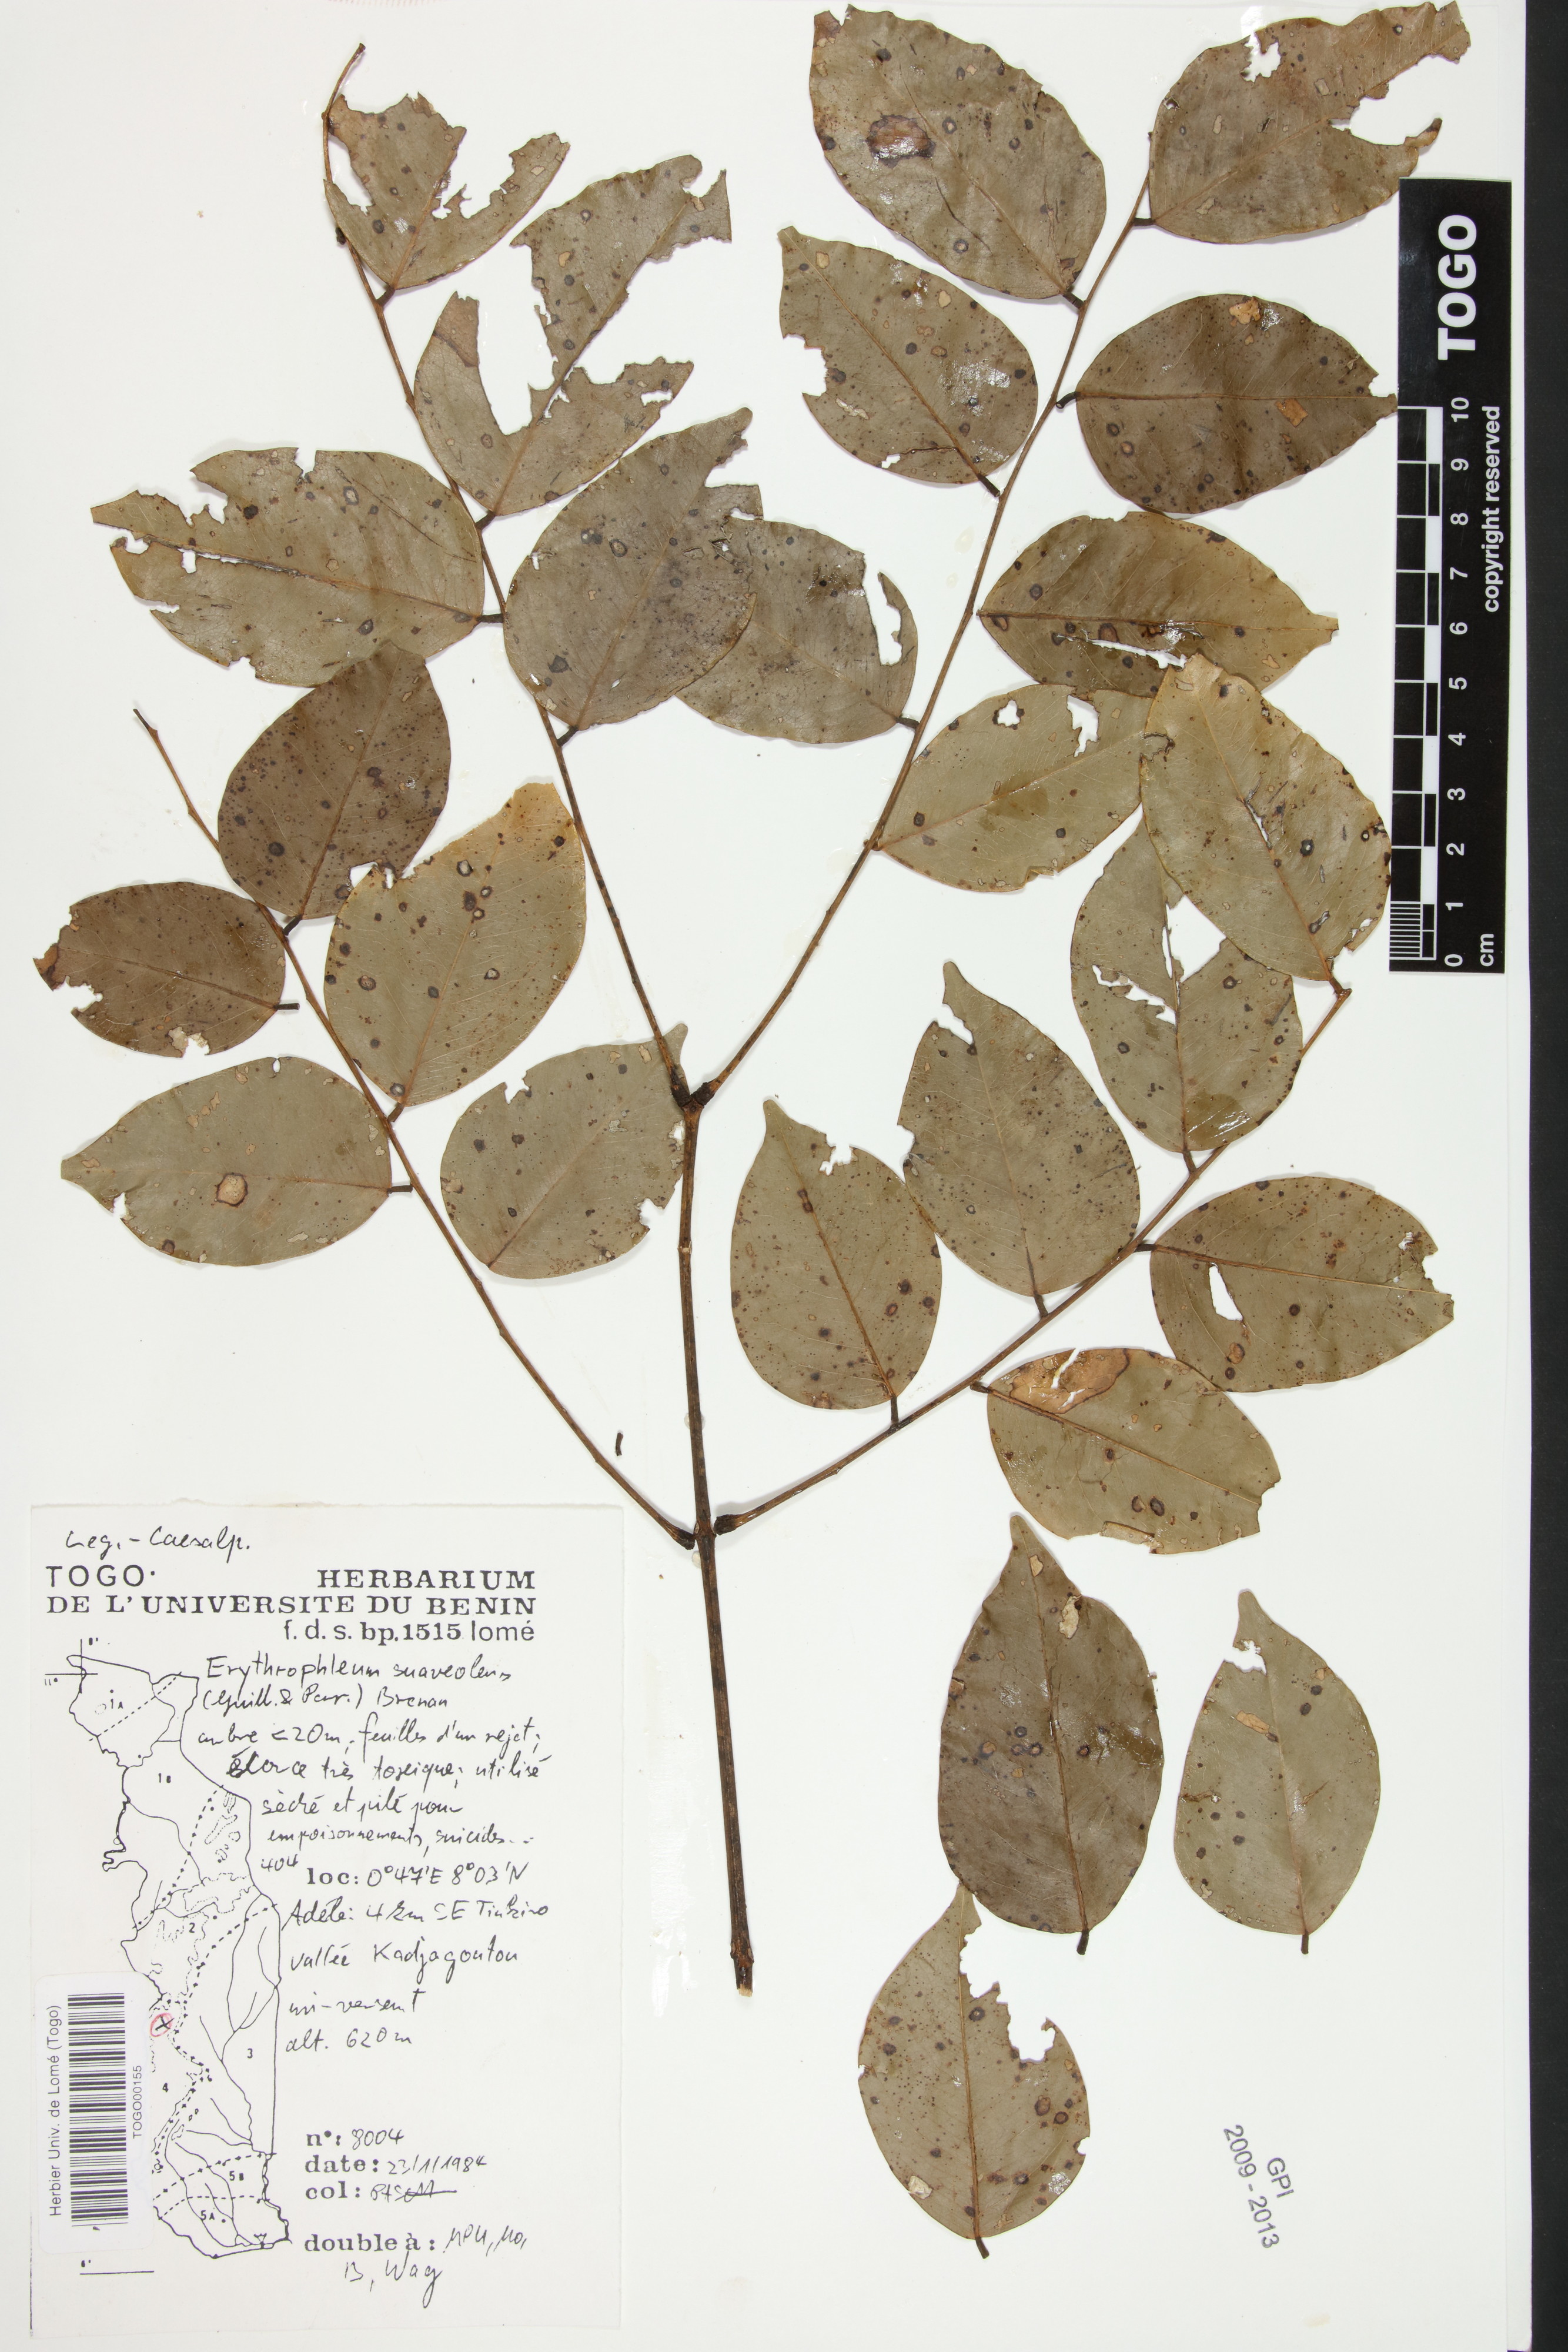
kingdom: Plantae
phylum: Tracheophyta
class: Magnoliopsida
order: Fabales
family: Fabaceae
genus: Erythrophleum
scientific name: Erythrophleum suaveolens
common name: Ordeal tree
